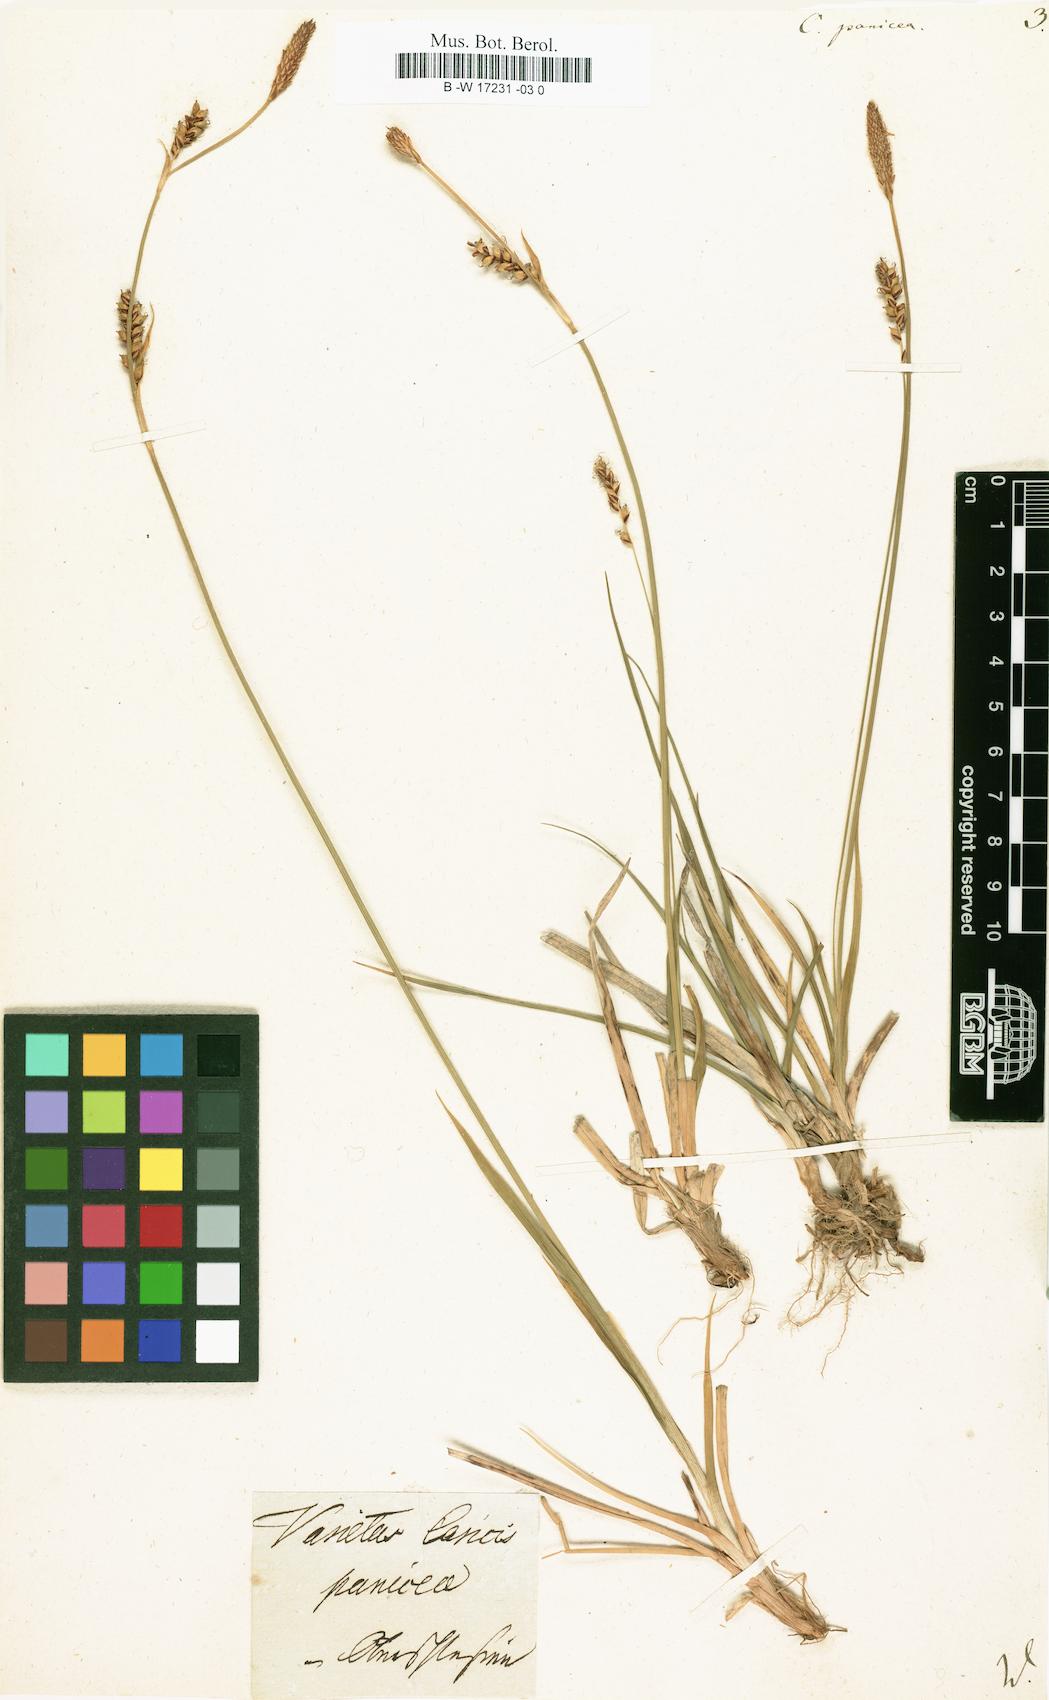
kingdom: Plantae
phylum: Tracheophyta
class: Liliopsida
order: Poales
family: Cyperaceae
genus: Carex
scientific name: Carex panicea
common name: Carnation sedge
